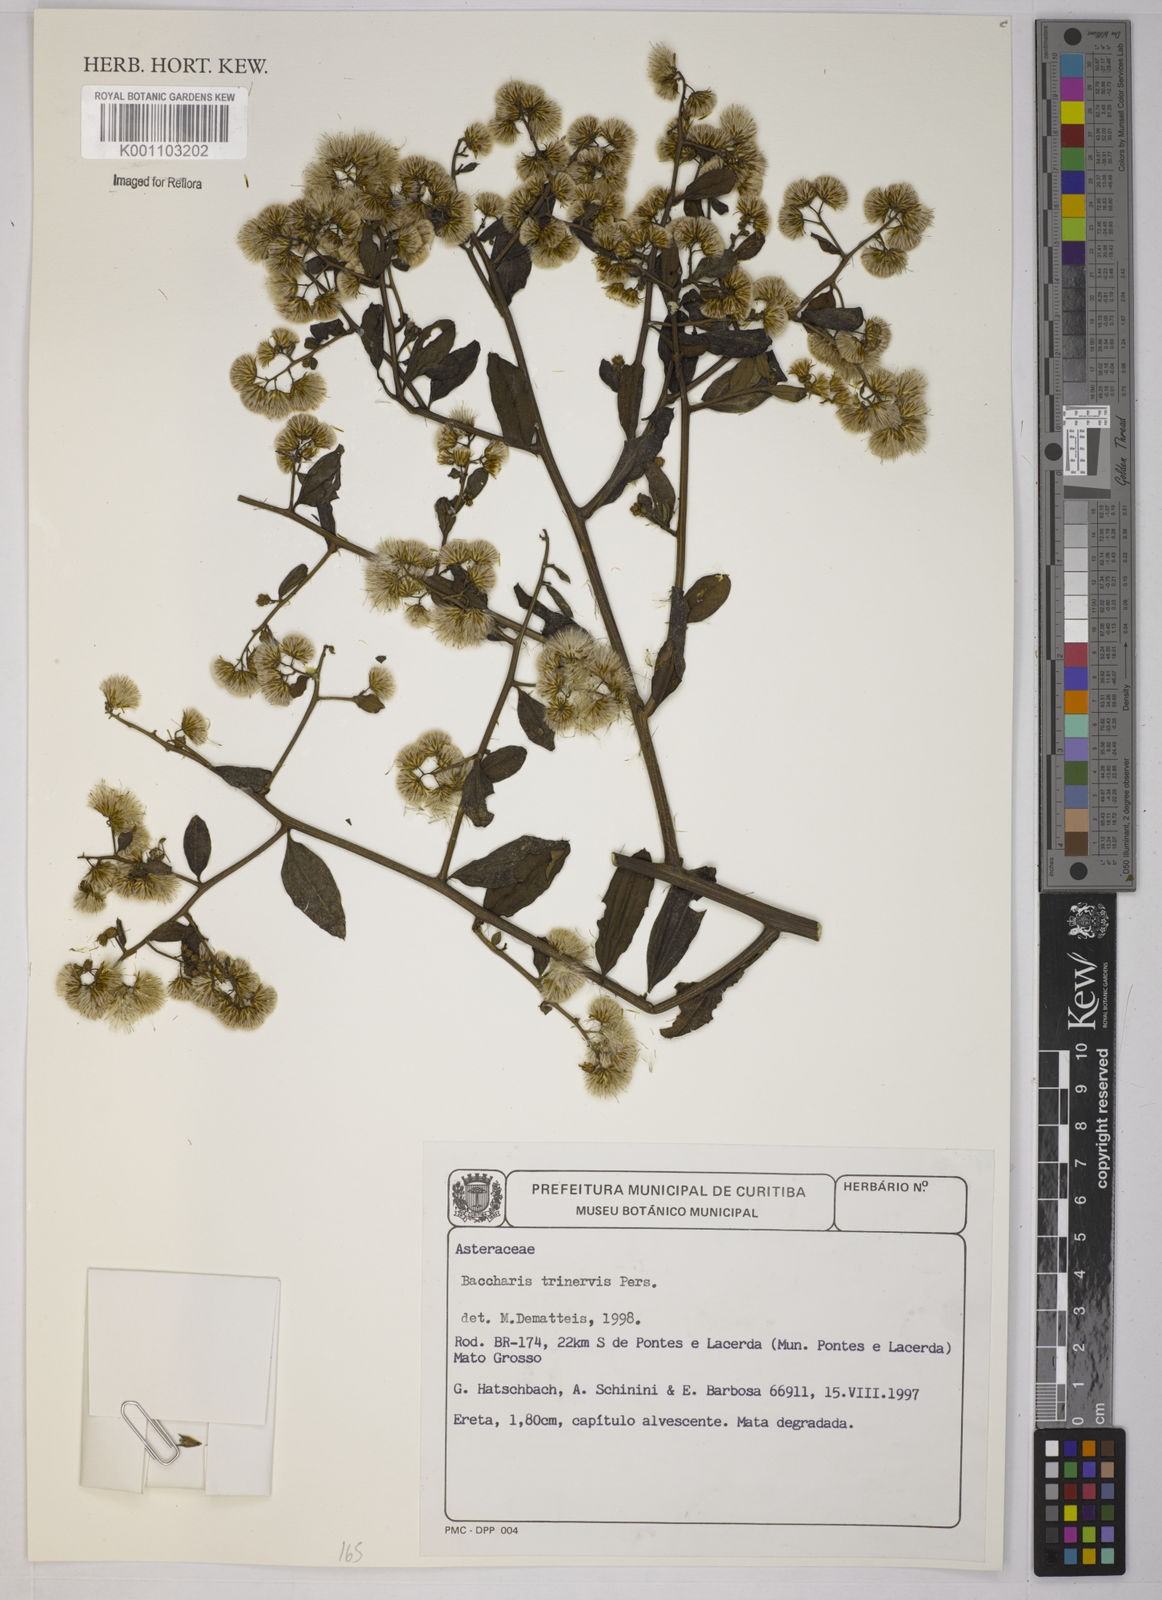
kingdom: Plantae
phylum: Tracheophyta
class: Magnoliopsida
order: Asterales
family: Asteraceae
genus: Baccharis
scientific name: Baccharis trinervis
